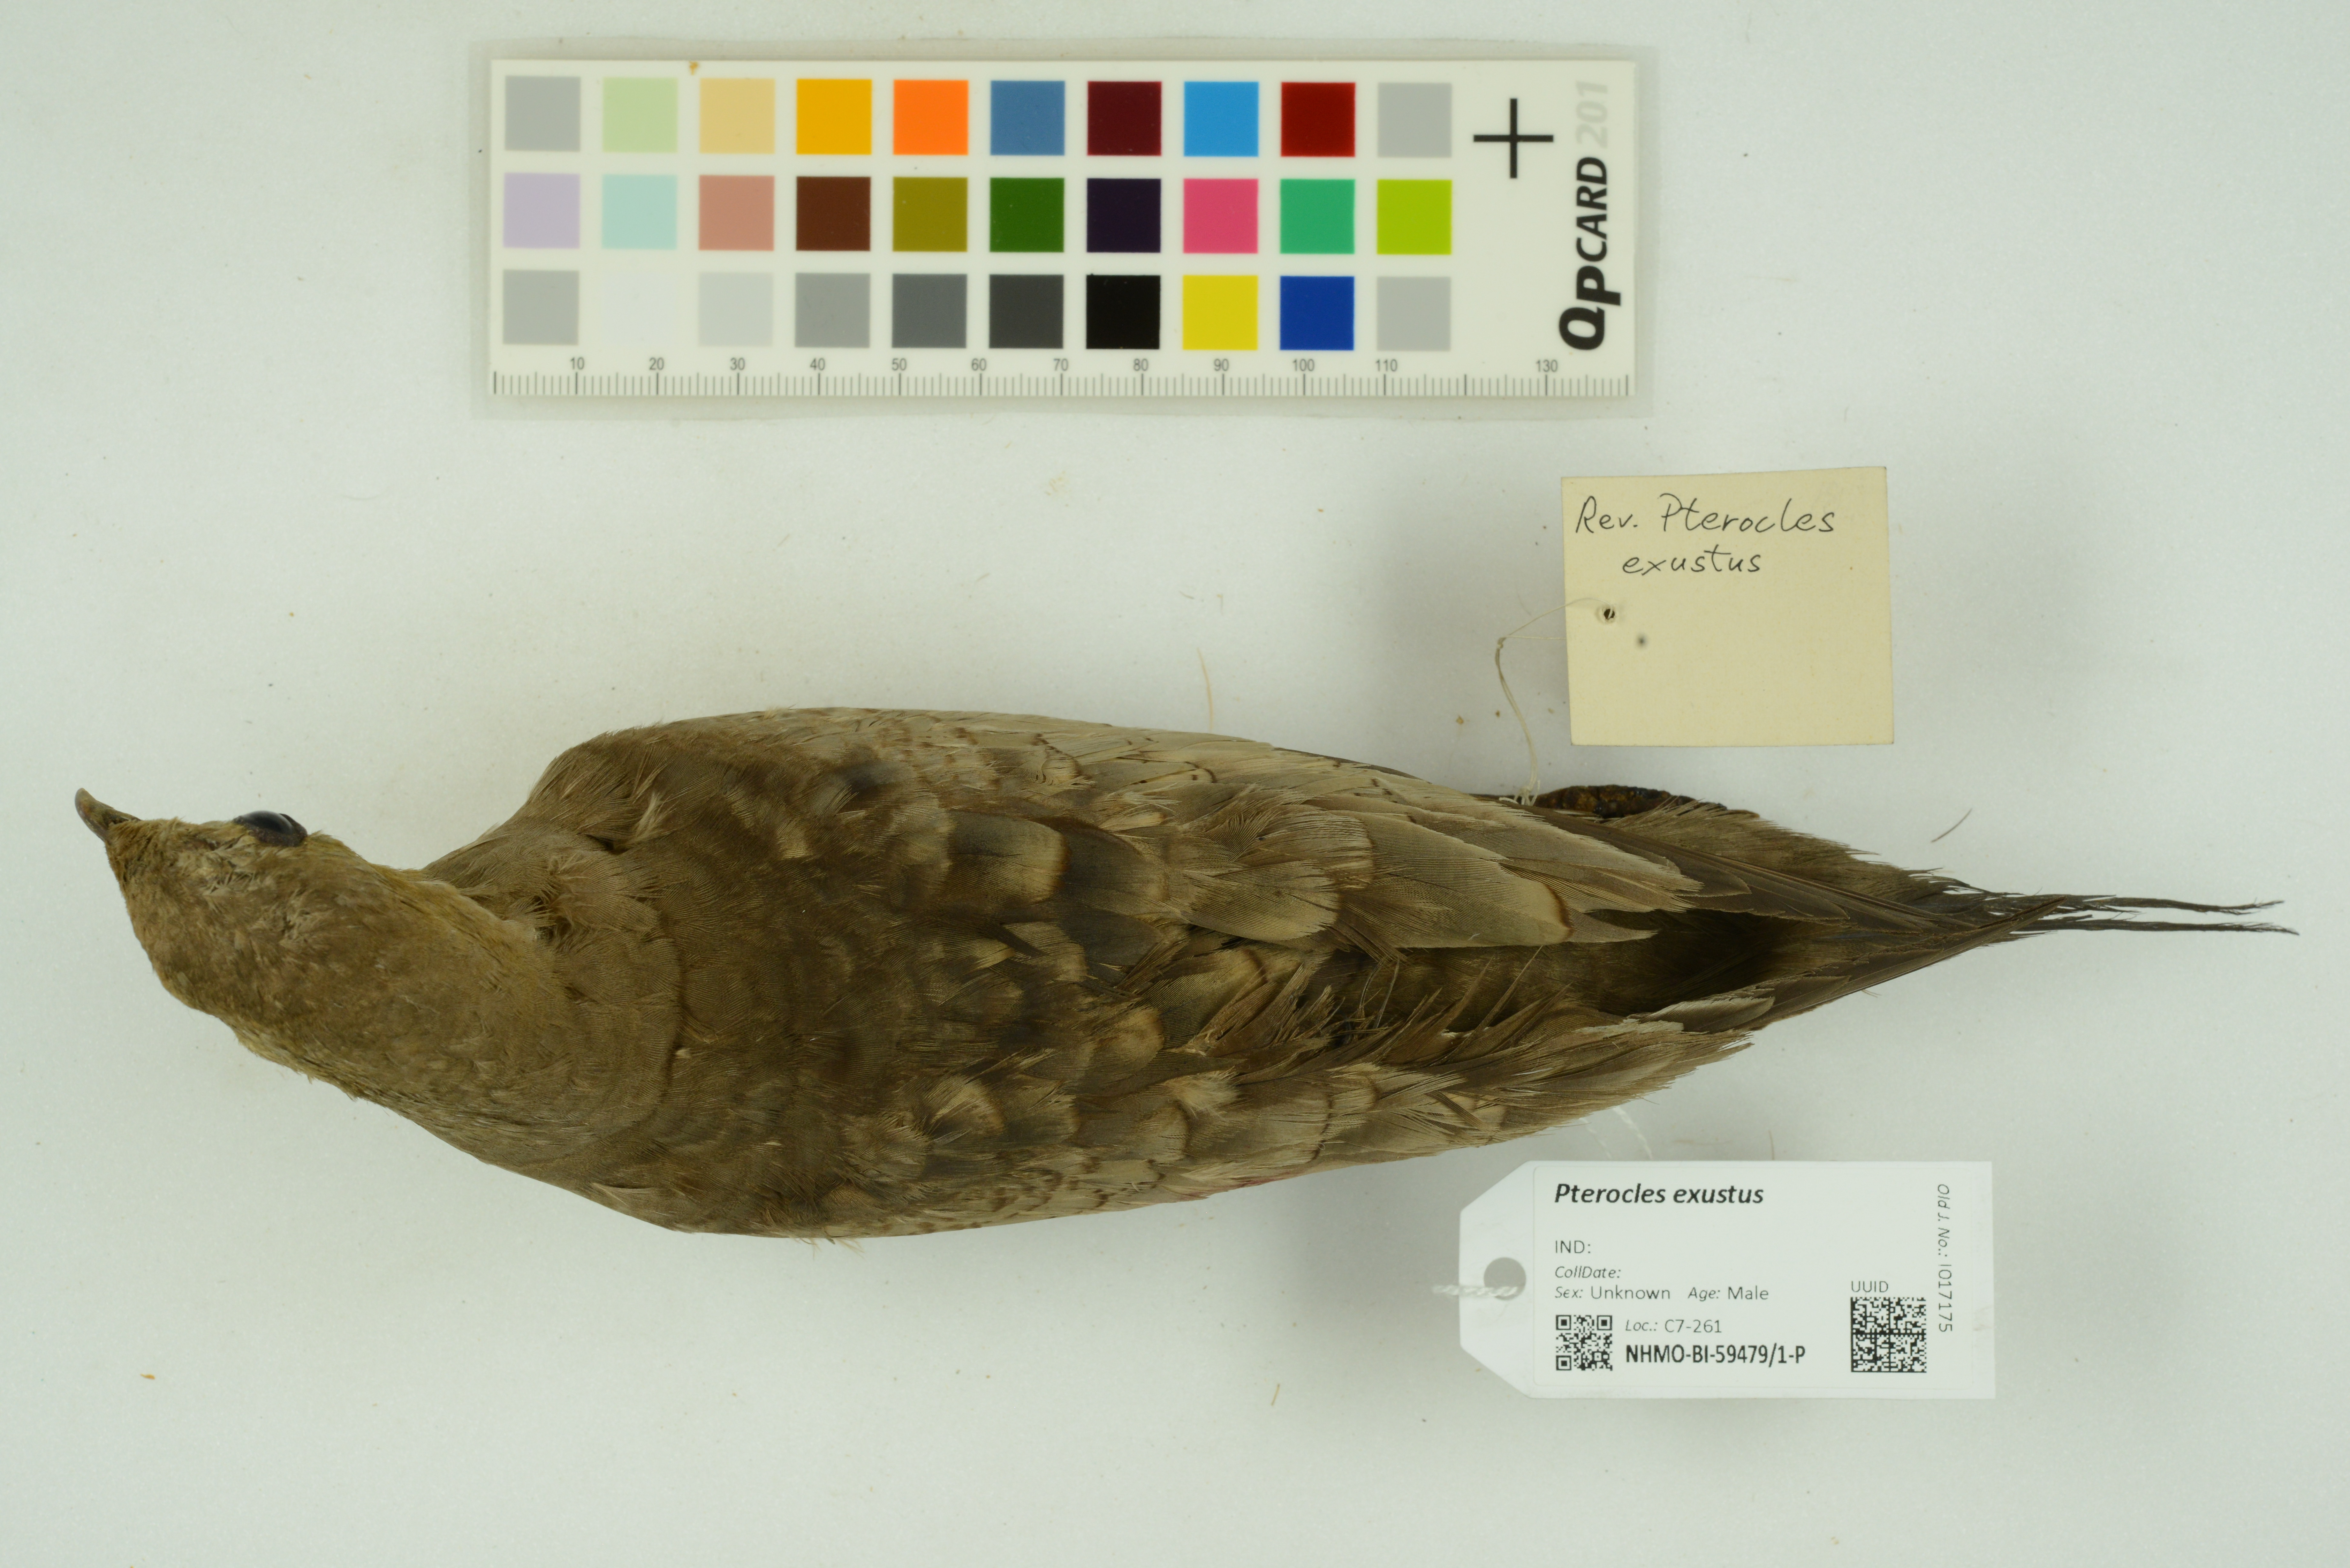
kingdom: Animalia
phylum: Chordata
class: Aves
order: Pteroclidiformes
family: Pteroclididae
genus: Pterocles
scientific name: Pterocles exustus
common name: Chestnut-bellied sandgrouse
